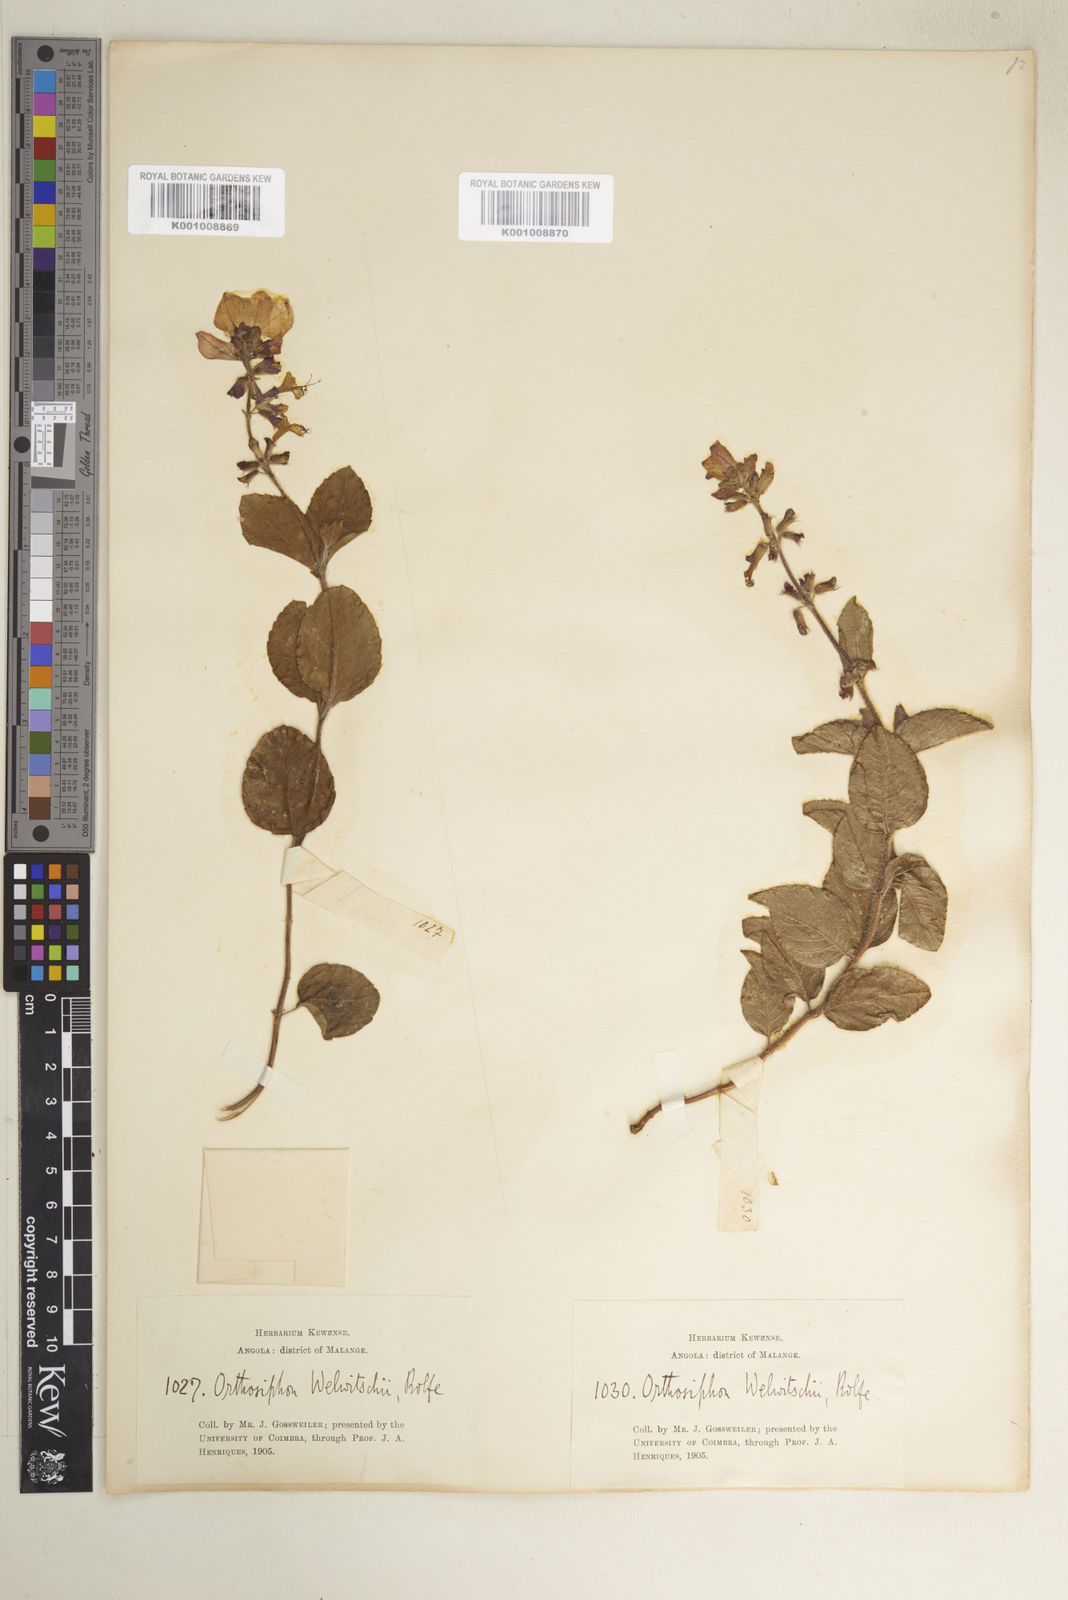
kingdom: Plantae
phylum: Tracheophyta
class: Magnoliopsida
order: Lamiales
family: Lamiaceae
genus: Syncolostemon
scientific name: Syncolostemon welwitschii
